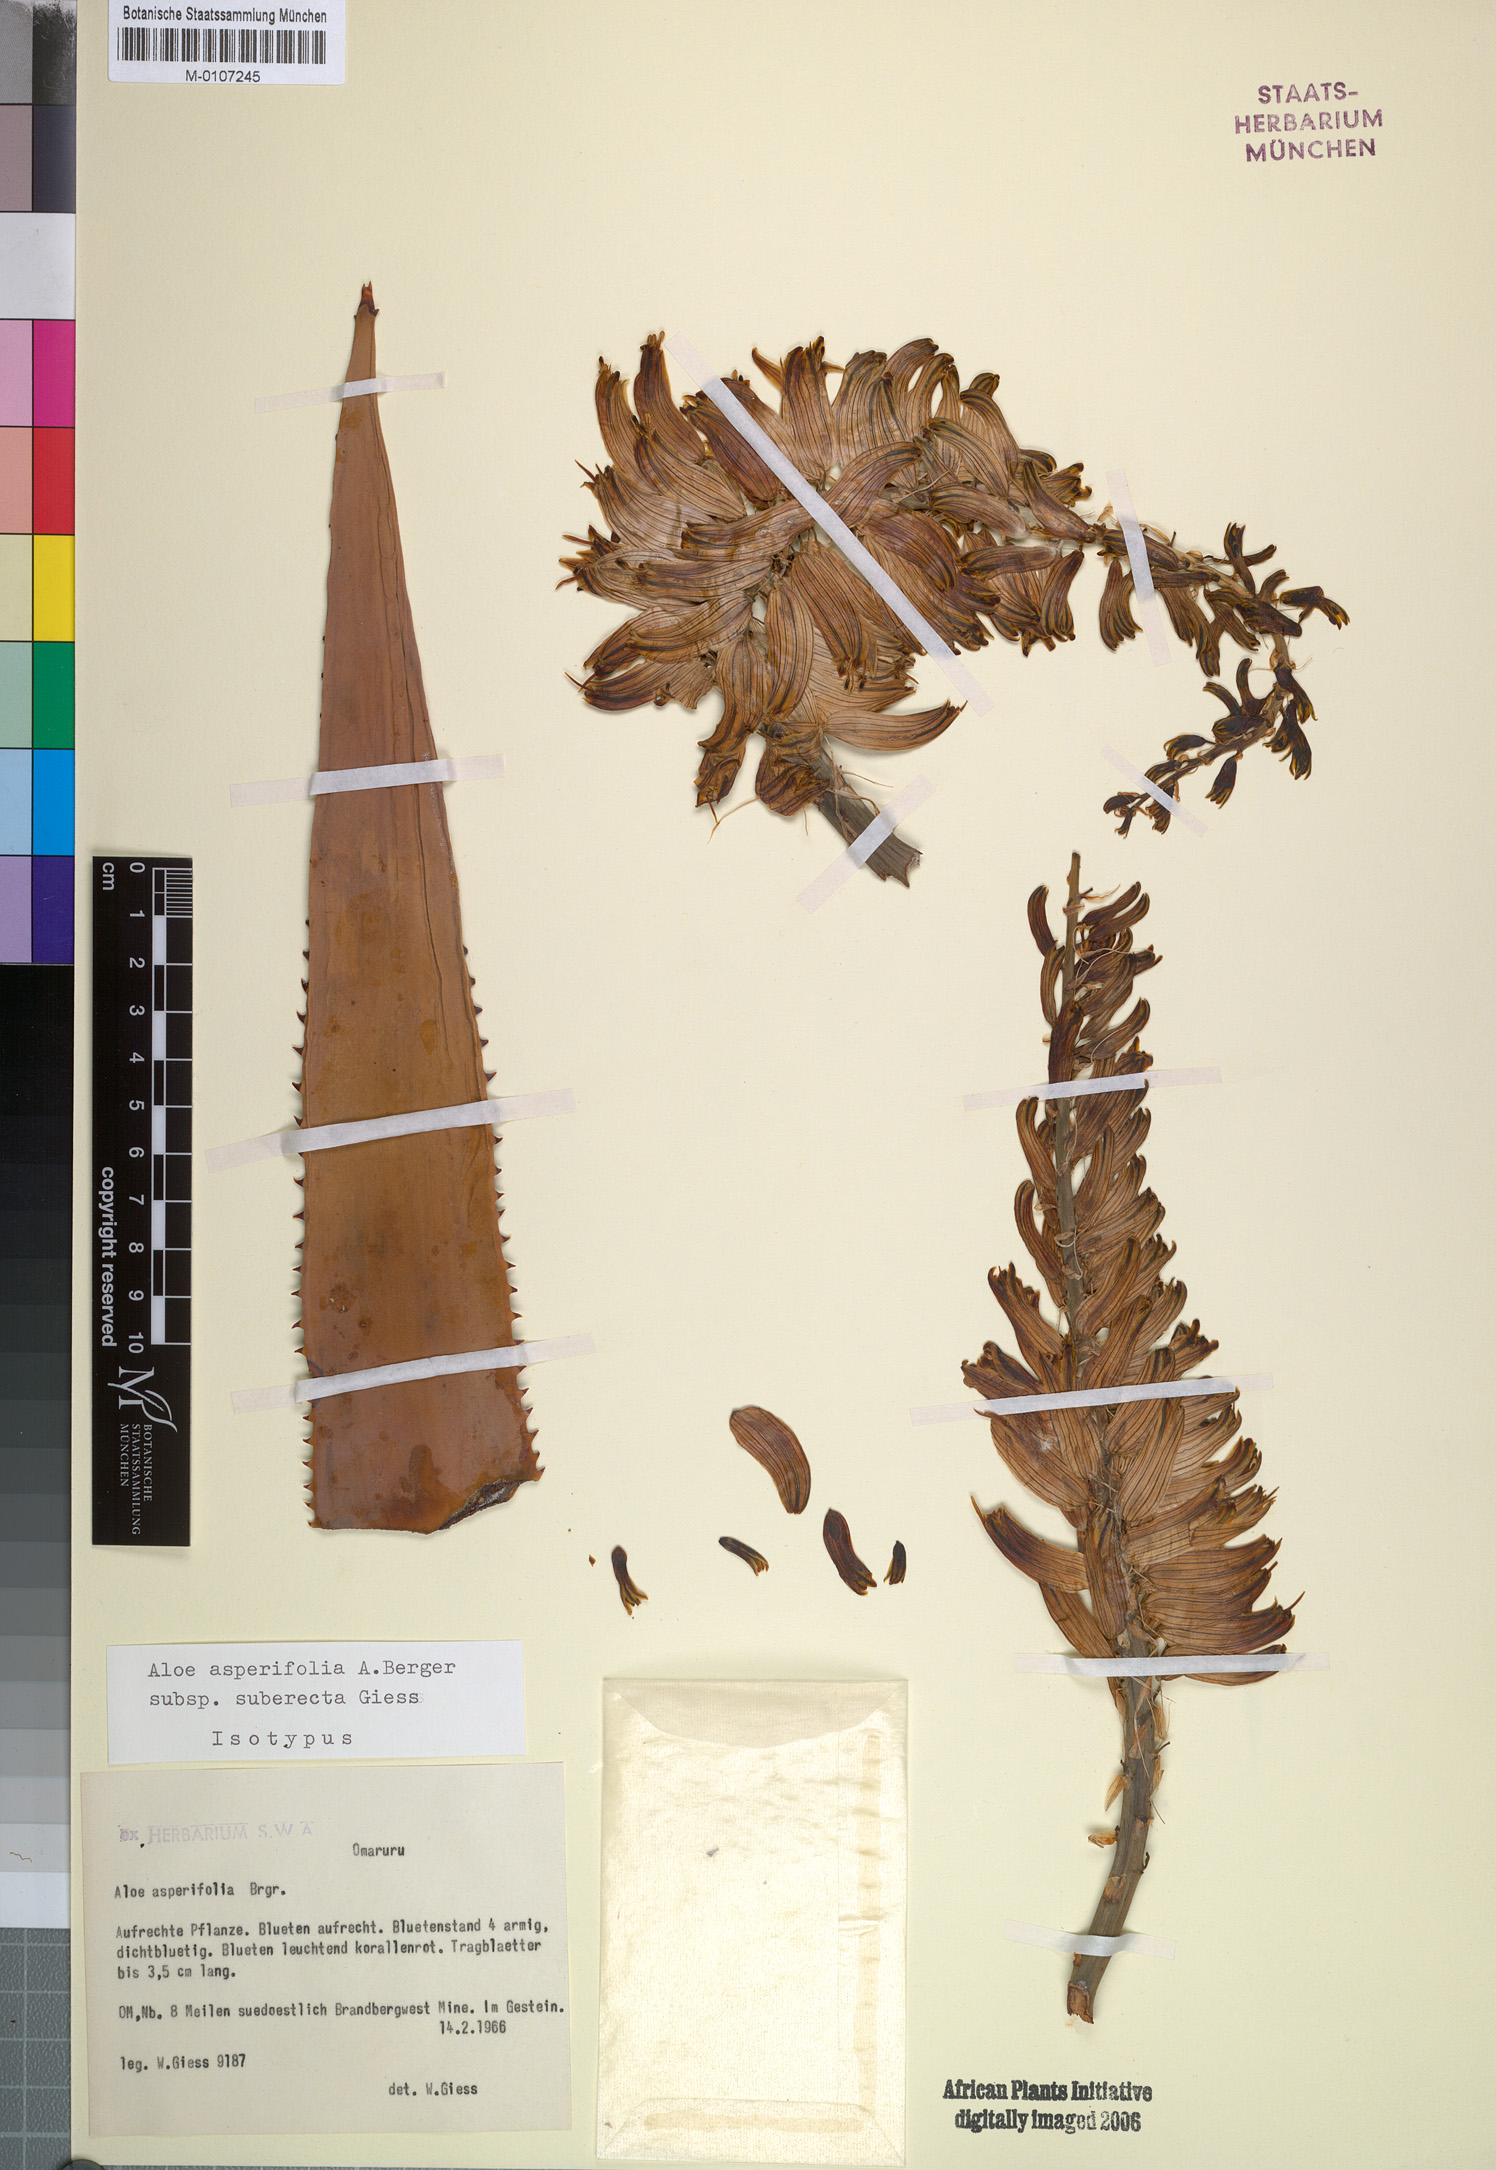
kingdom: Plantae
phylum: Tracheophyta
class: Liliopsida
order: Asparagales
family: Asphodelaceae
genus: Aloe
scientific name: Aloe asperifolia
